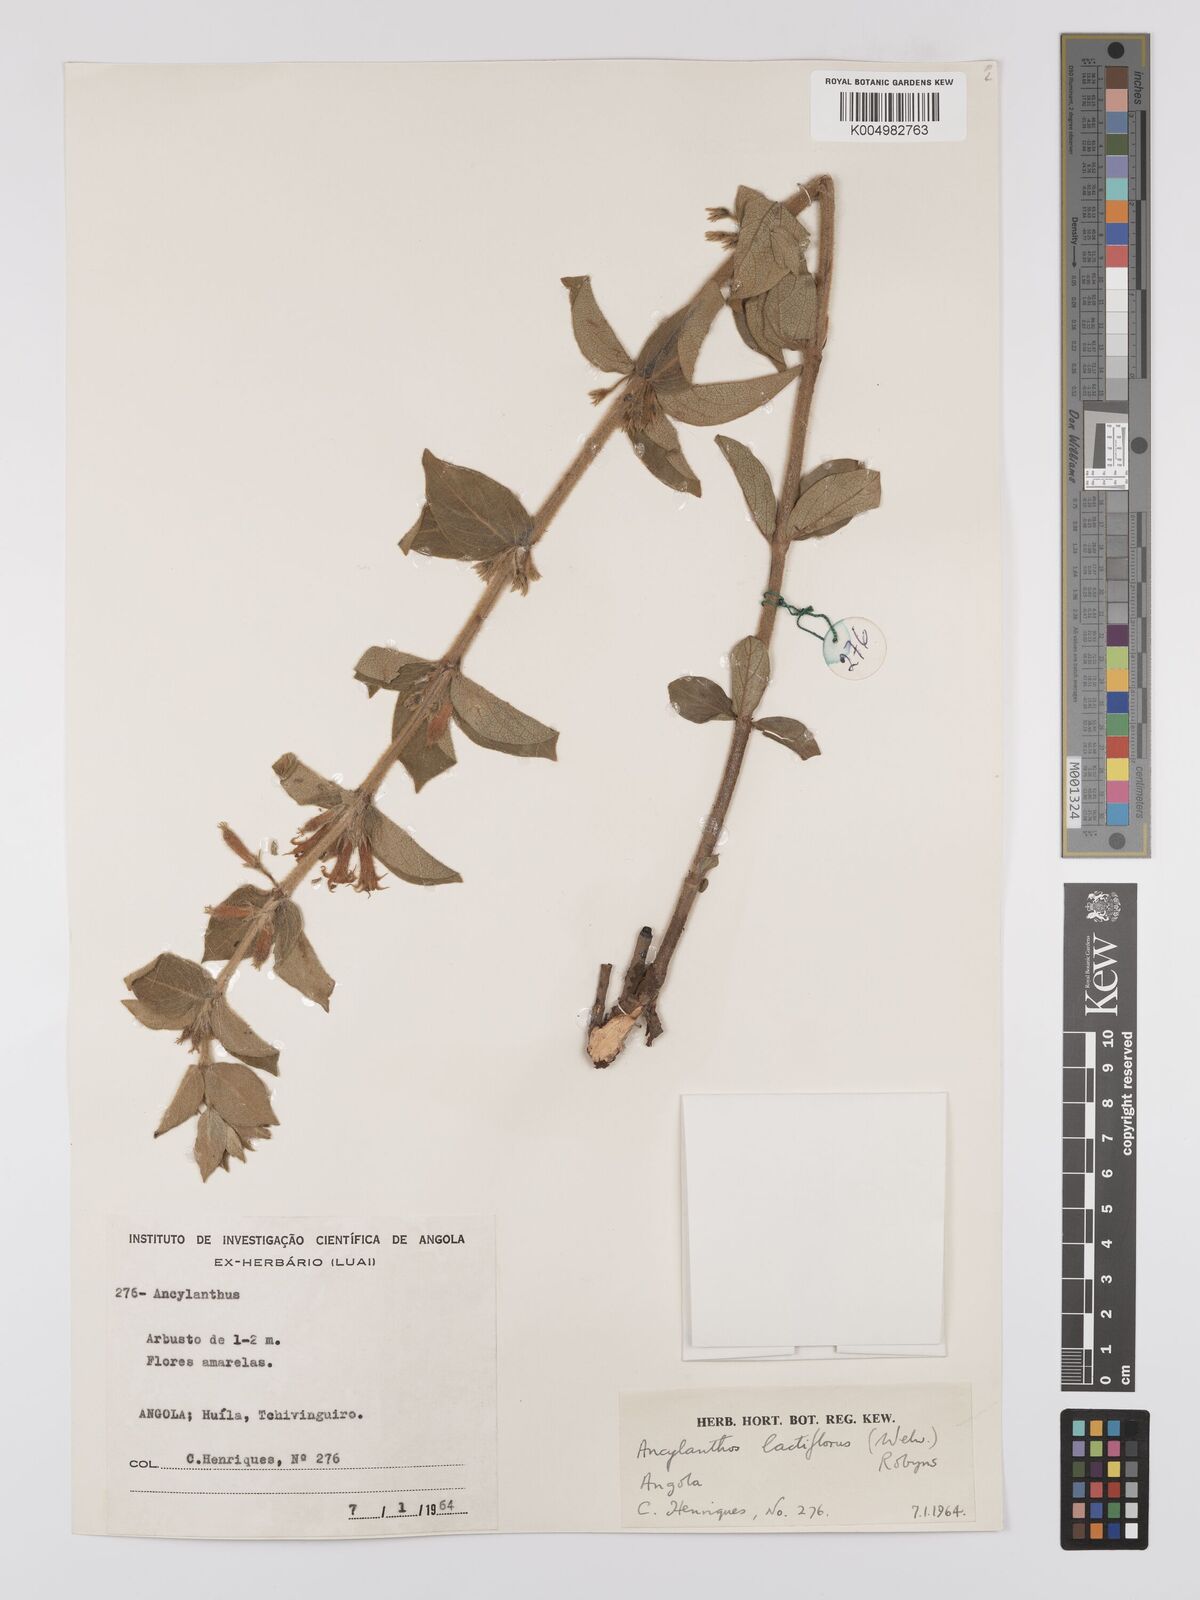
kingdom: Plantae
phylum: Tracheophyta
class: Magnoliopsida
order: Gentianales
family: Rubiaceae
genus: Fadogia
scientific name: Fadogia lactiflora
